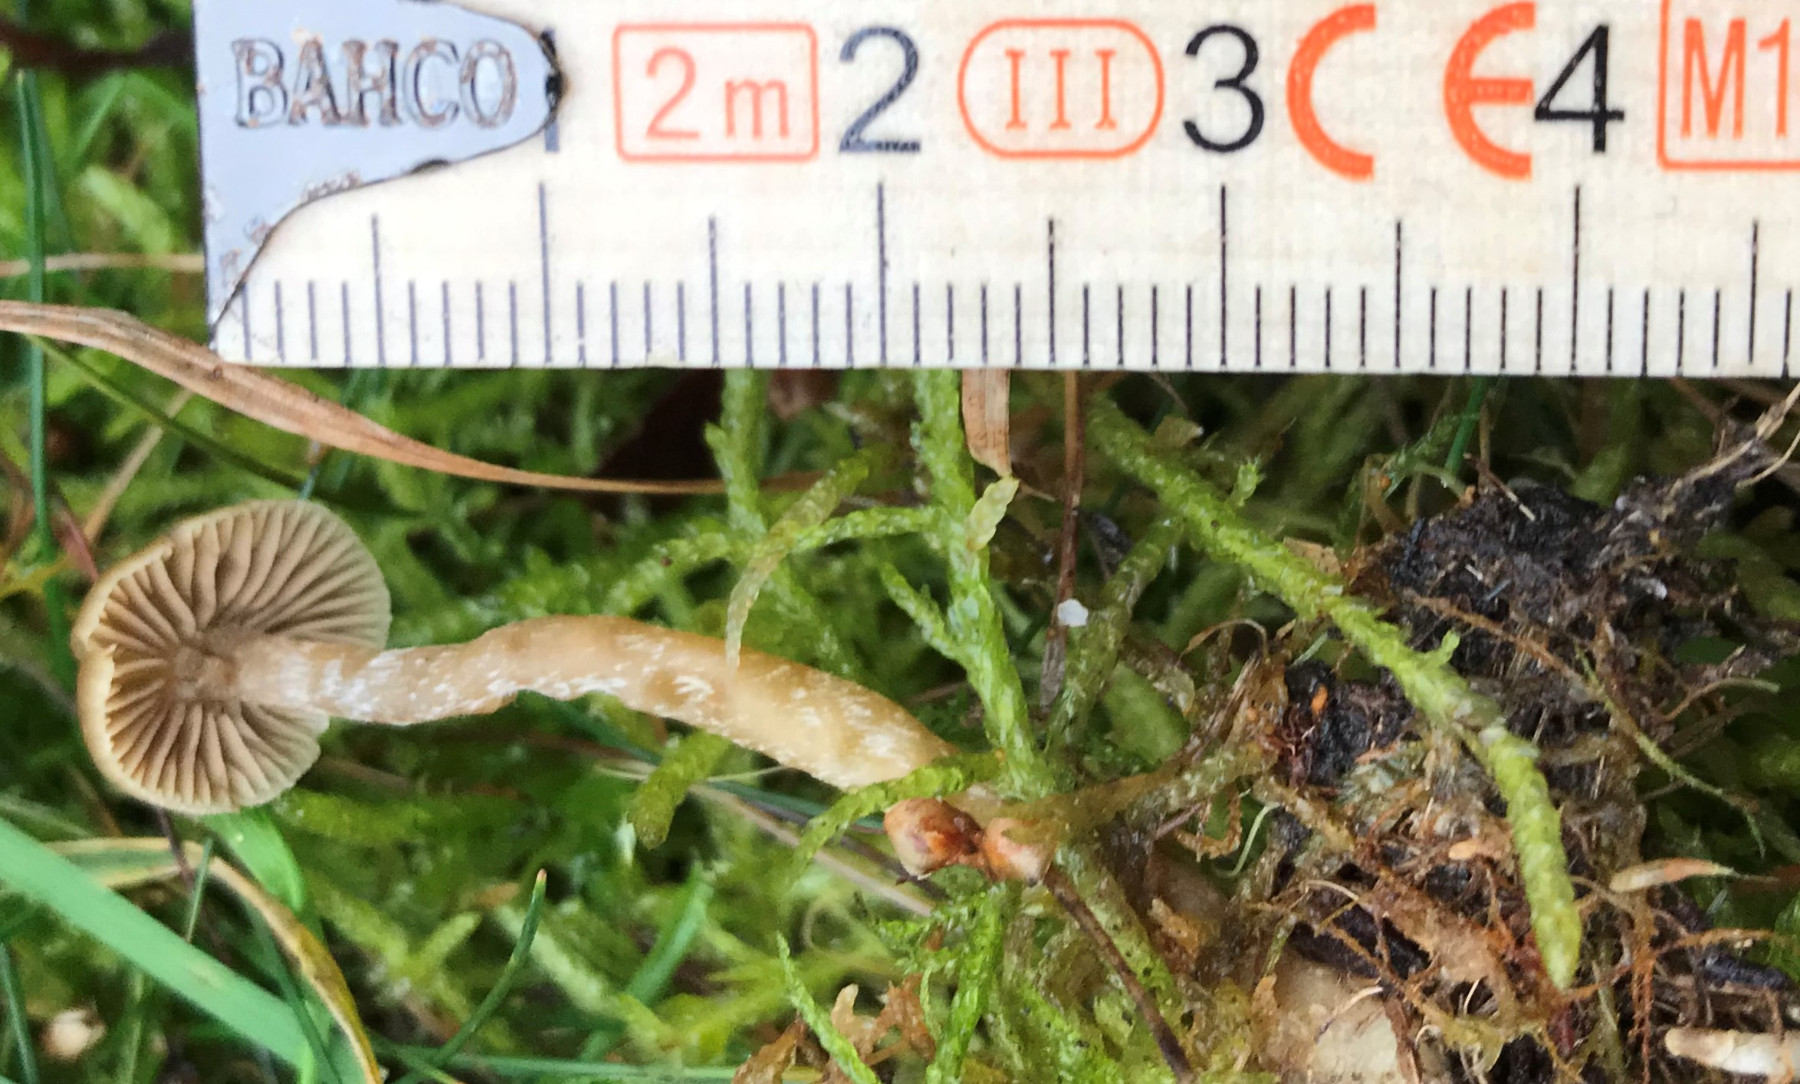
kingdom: Fungi
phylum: Basidiomycota
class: Agaricomycetes
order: Agaricales
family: Hymenogastraceae
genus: Galerina
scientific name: Galerina mniophila
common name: olivengul hjelmhat
